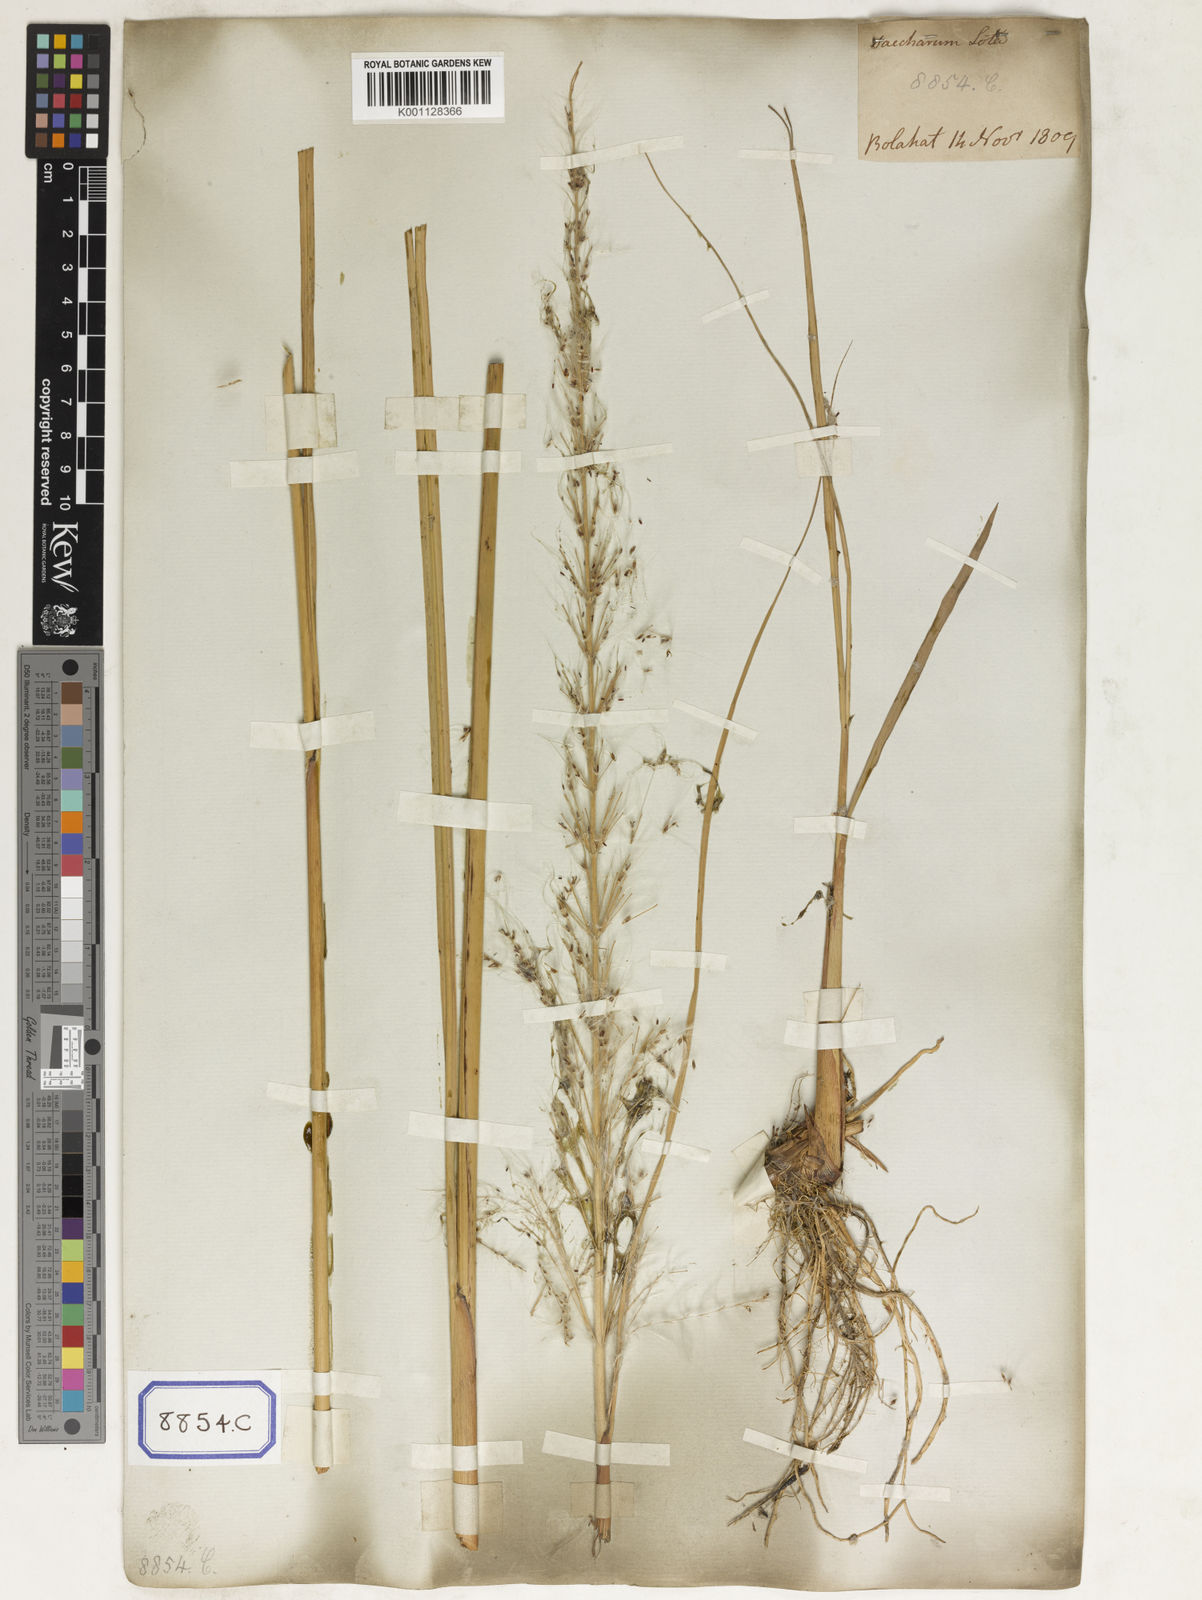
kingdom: Plantae
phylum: Tracheophyta
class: Liliopsida
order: Poales
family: Poaceae
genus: Saccharum
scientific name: Saccharum
